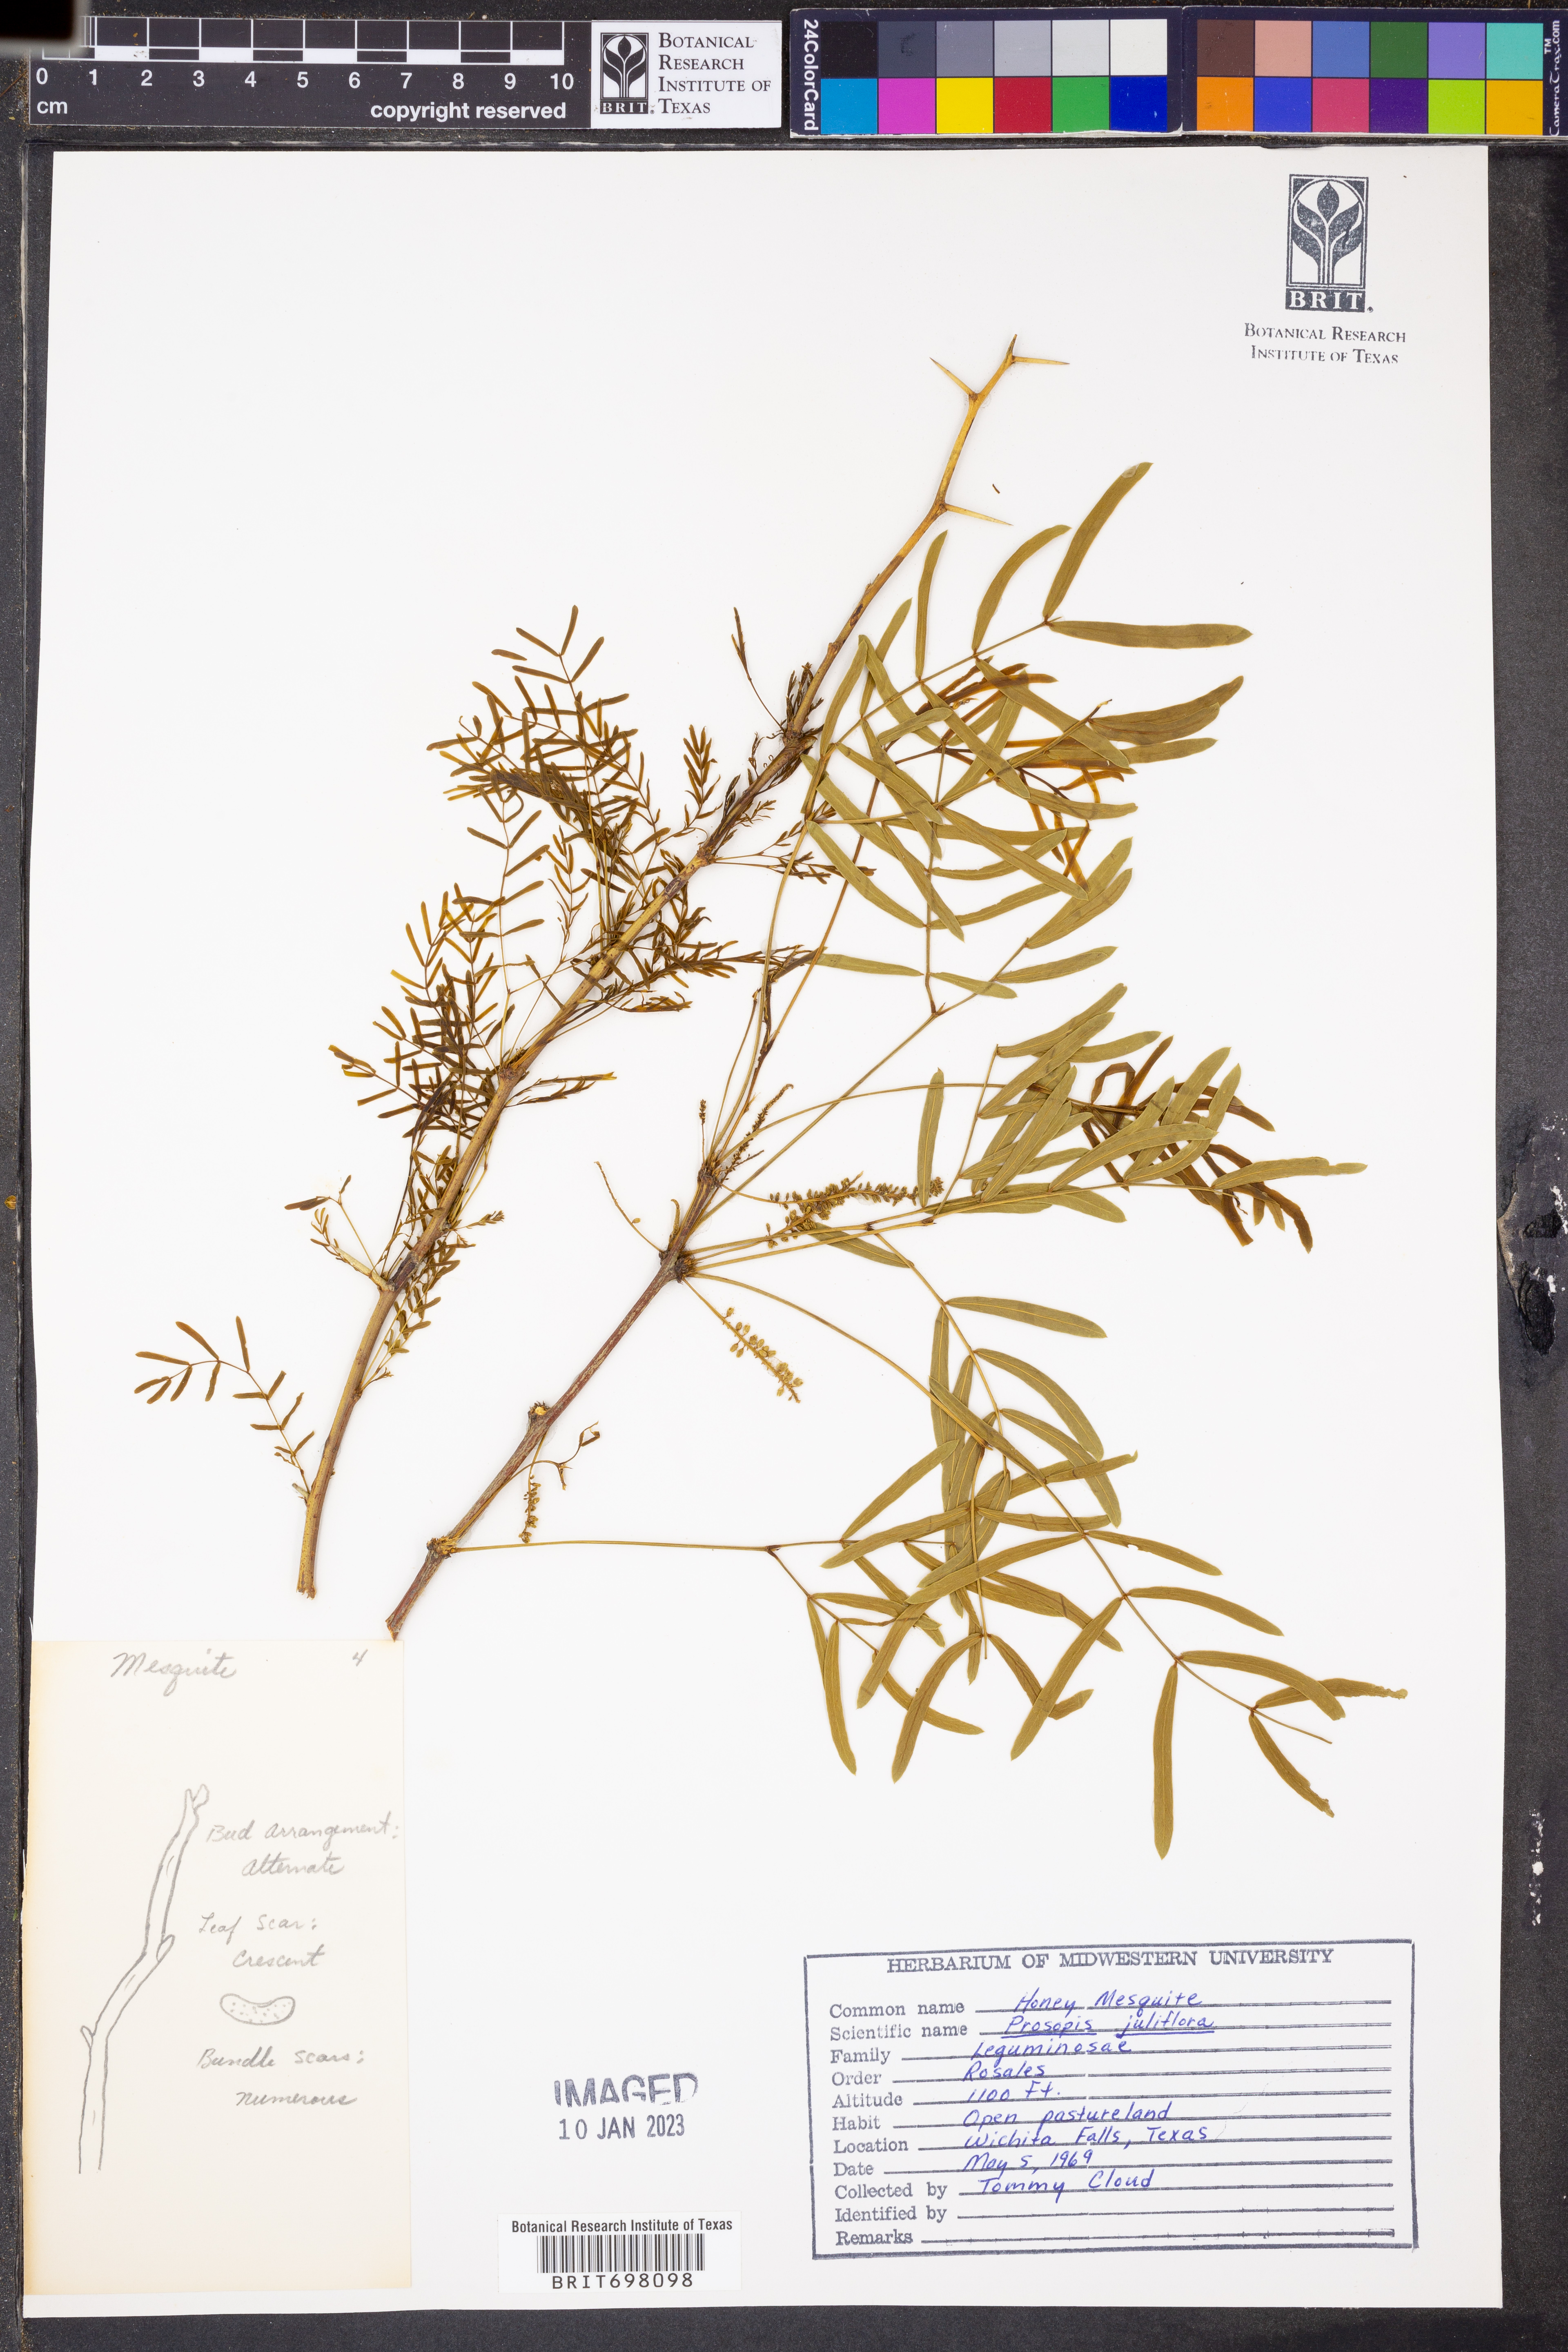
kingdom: Plantae
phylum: Tracheophyta
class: Magnoliopsida
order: Fabales
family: Fabaceae
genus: Prosopis
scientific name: Prosopis juliflora
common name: Mesquite
